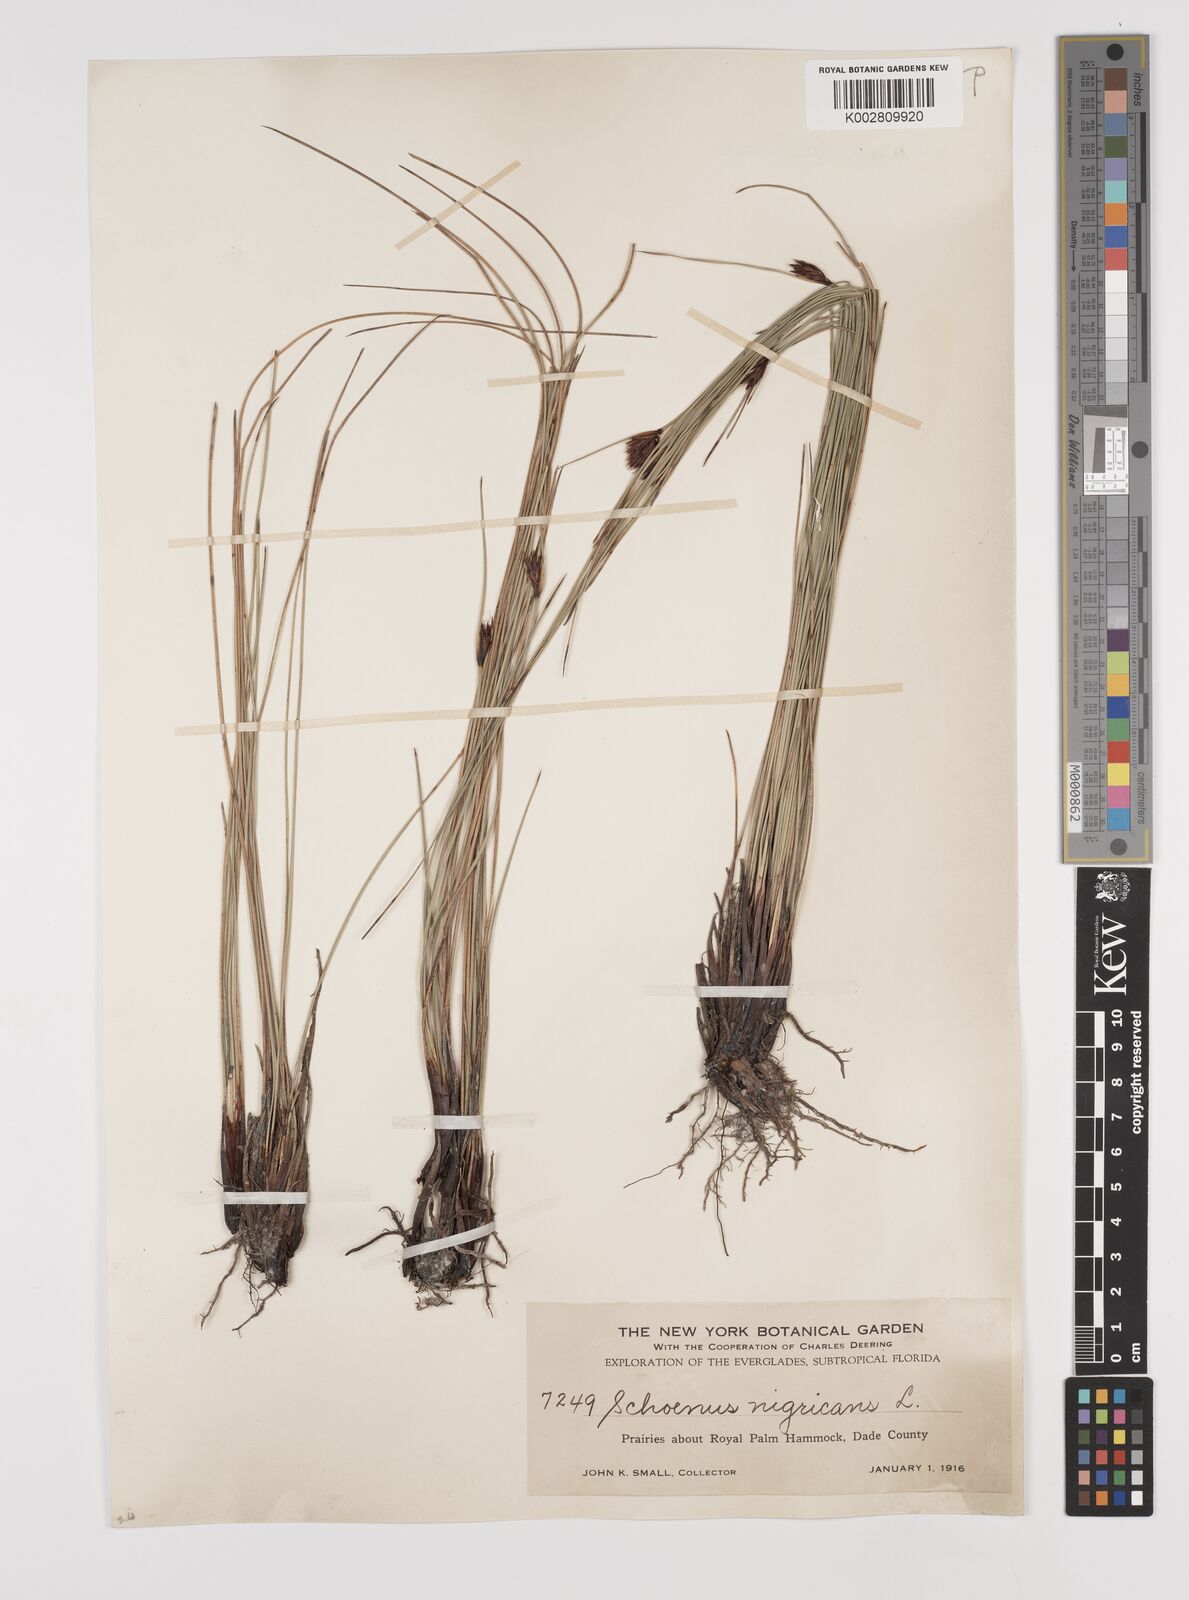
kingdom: Plantae
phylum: Tracheophyta
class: Liliopsida
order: Poales
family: Cyperaceae
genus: Schoenus
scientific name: Schoenus nigricans
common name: Black bog-rush
